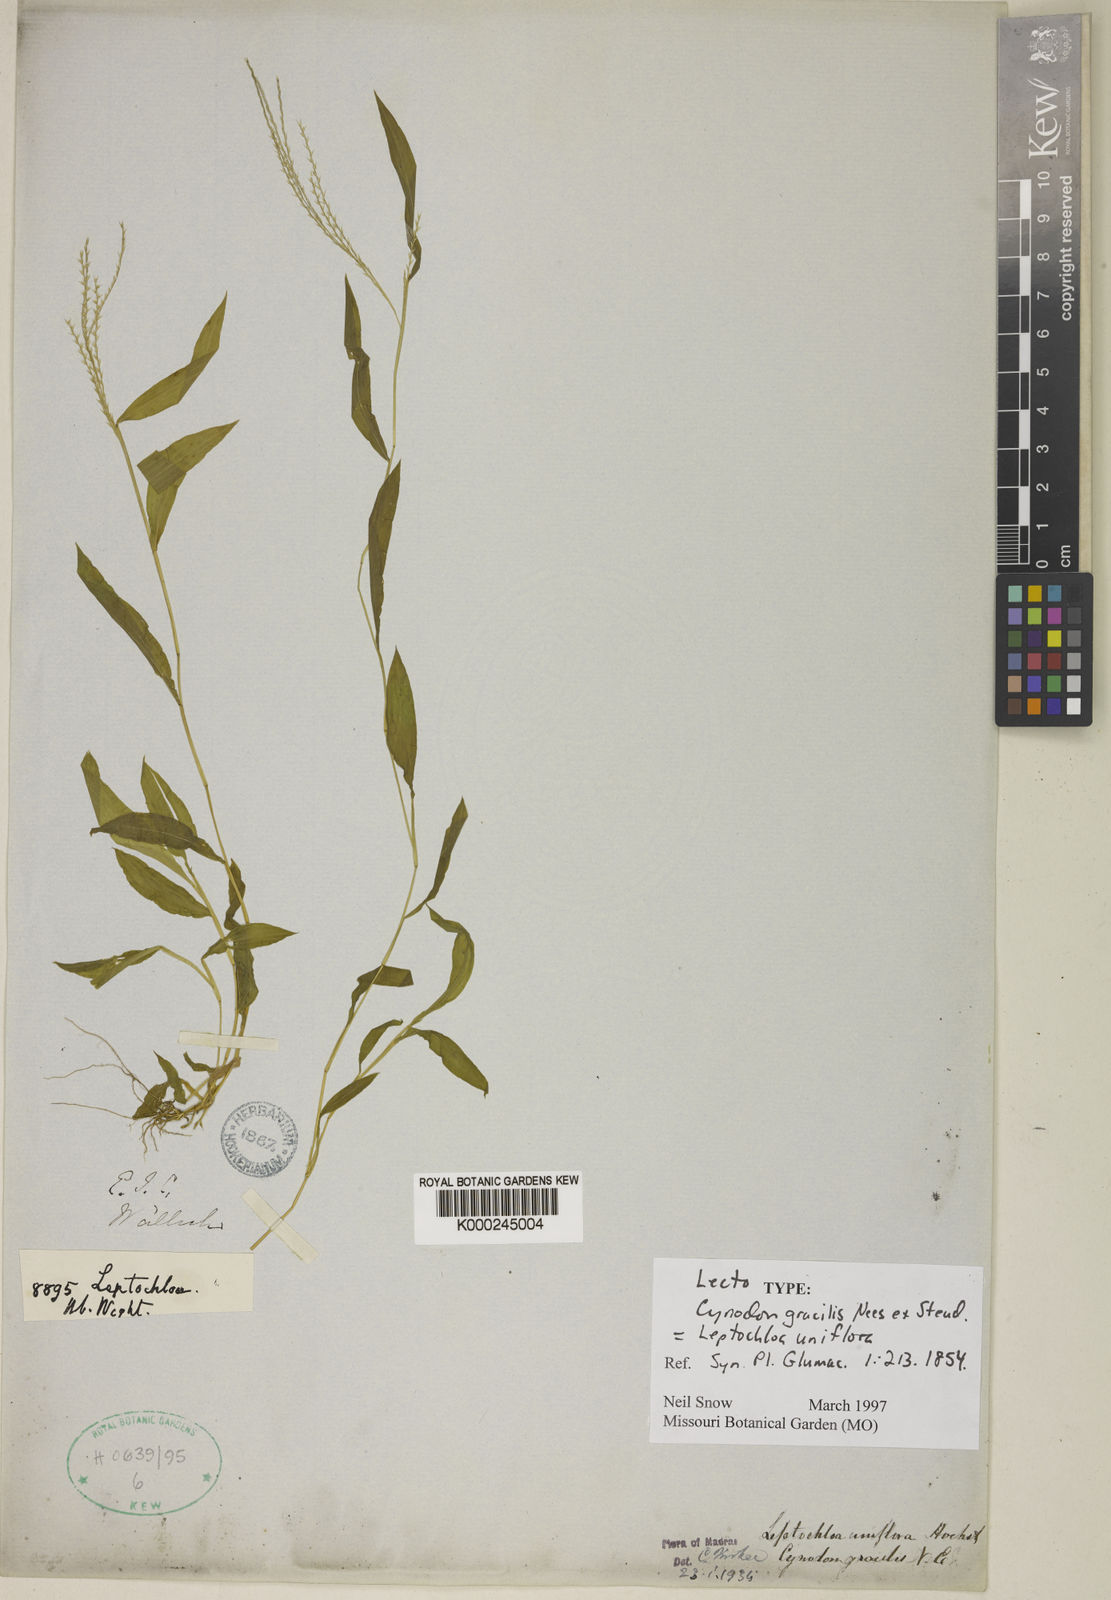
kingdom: Plantae
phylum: Tracheophyta
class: Liliopsida
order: Poales
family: Poaceae
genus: Trigonochloa
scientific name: Trigonochloa uniflora
